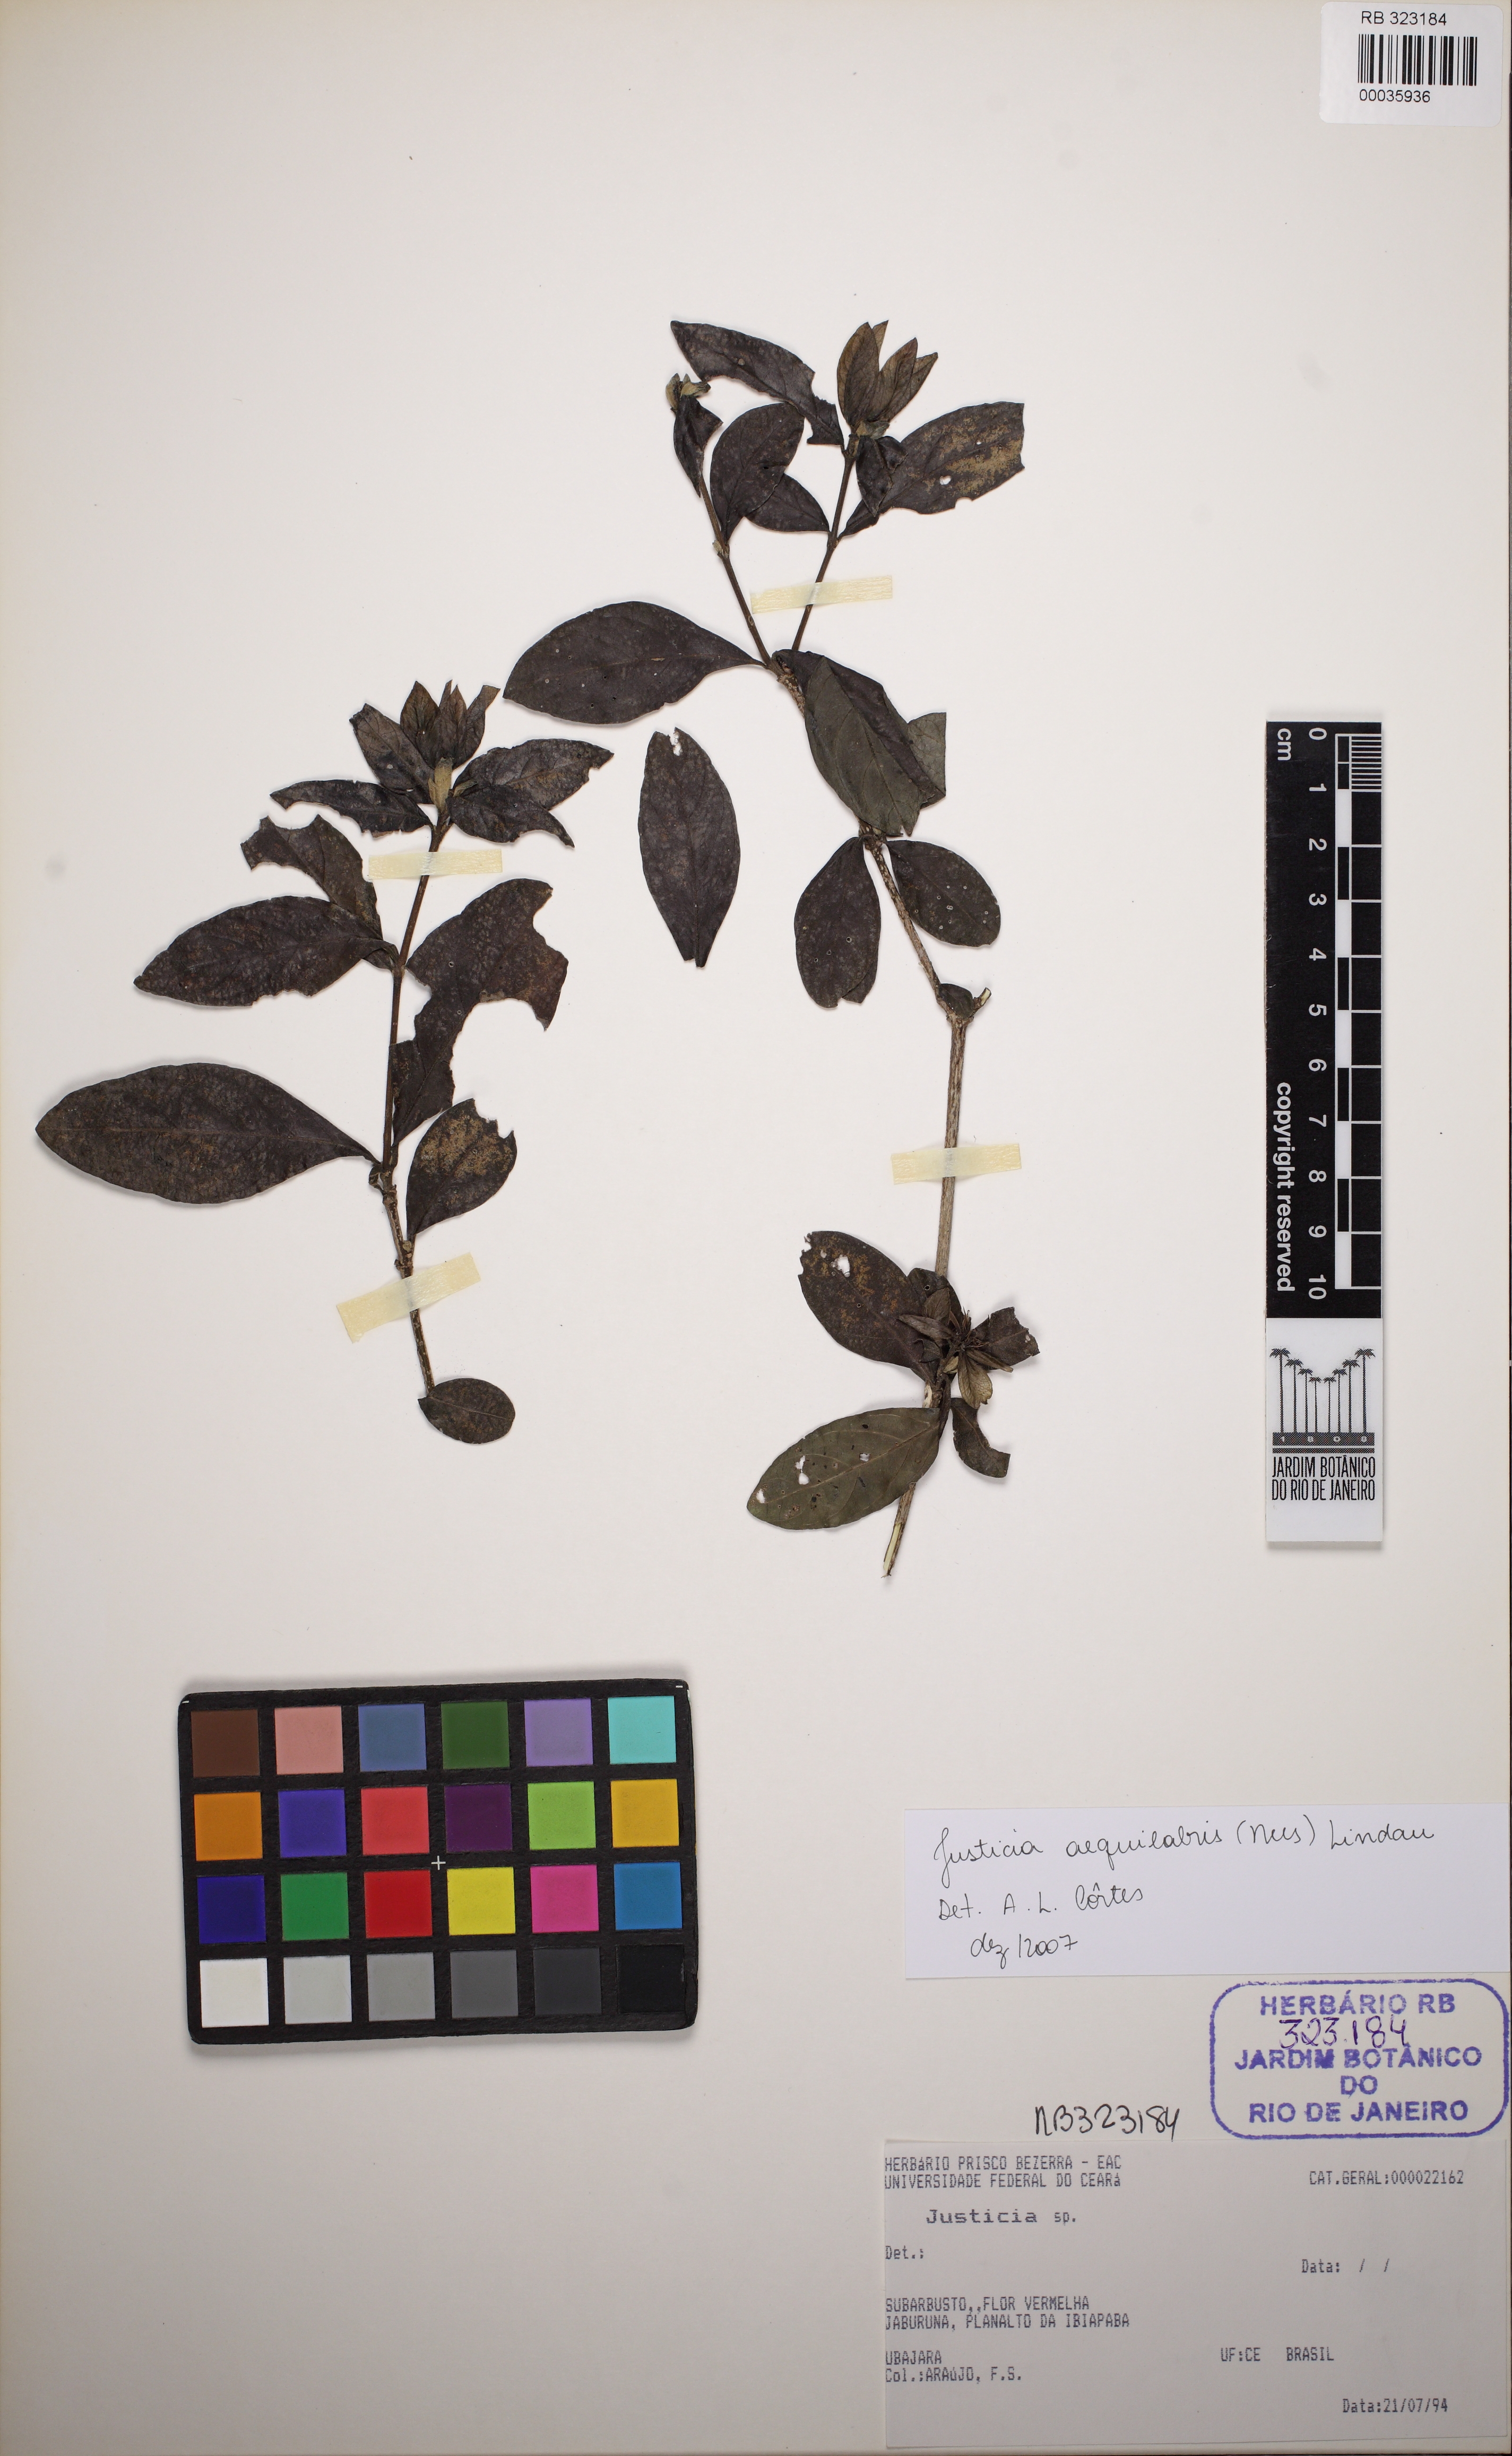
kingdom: Plantae
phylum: Tracheophyta
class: Magnoliopsida
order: Lamiales
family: Acanthaceae
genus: Justicia
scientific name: Justicia aequilabris
